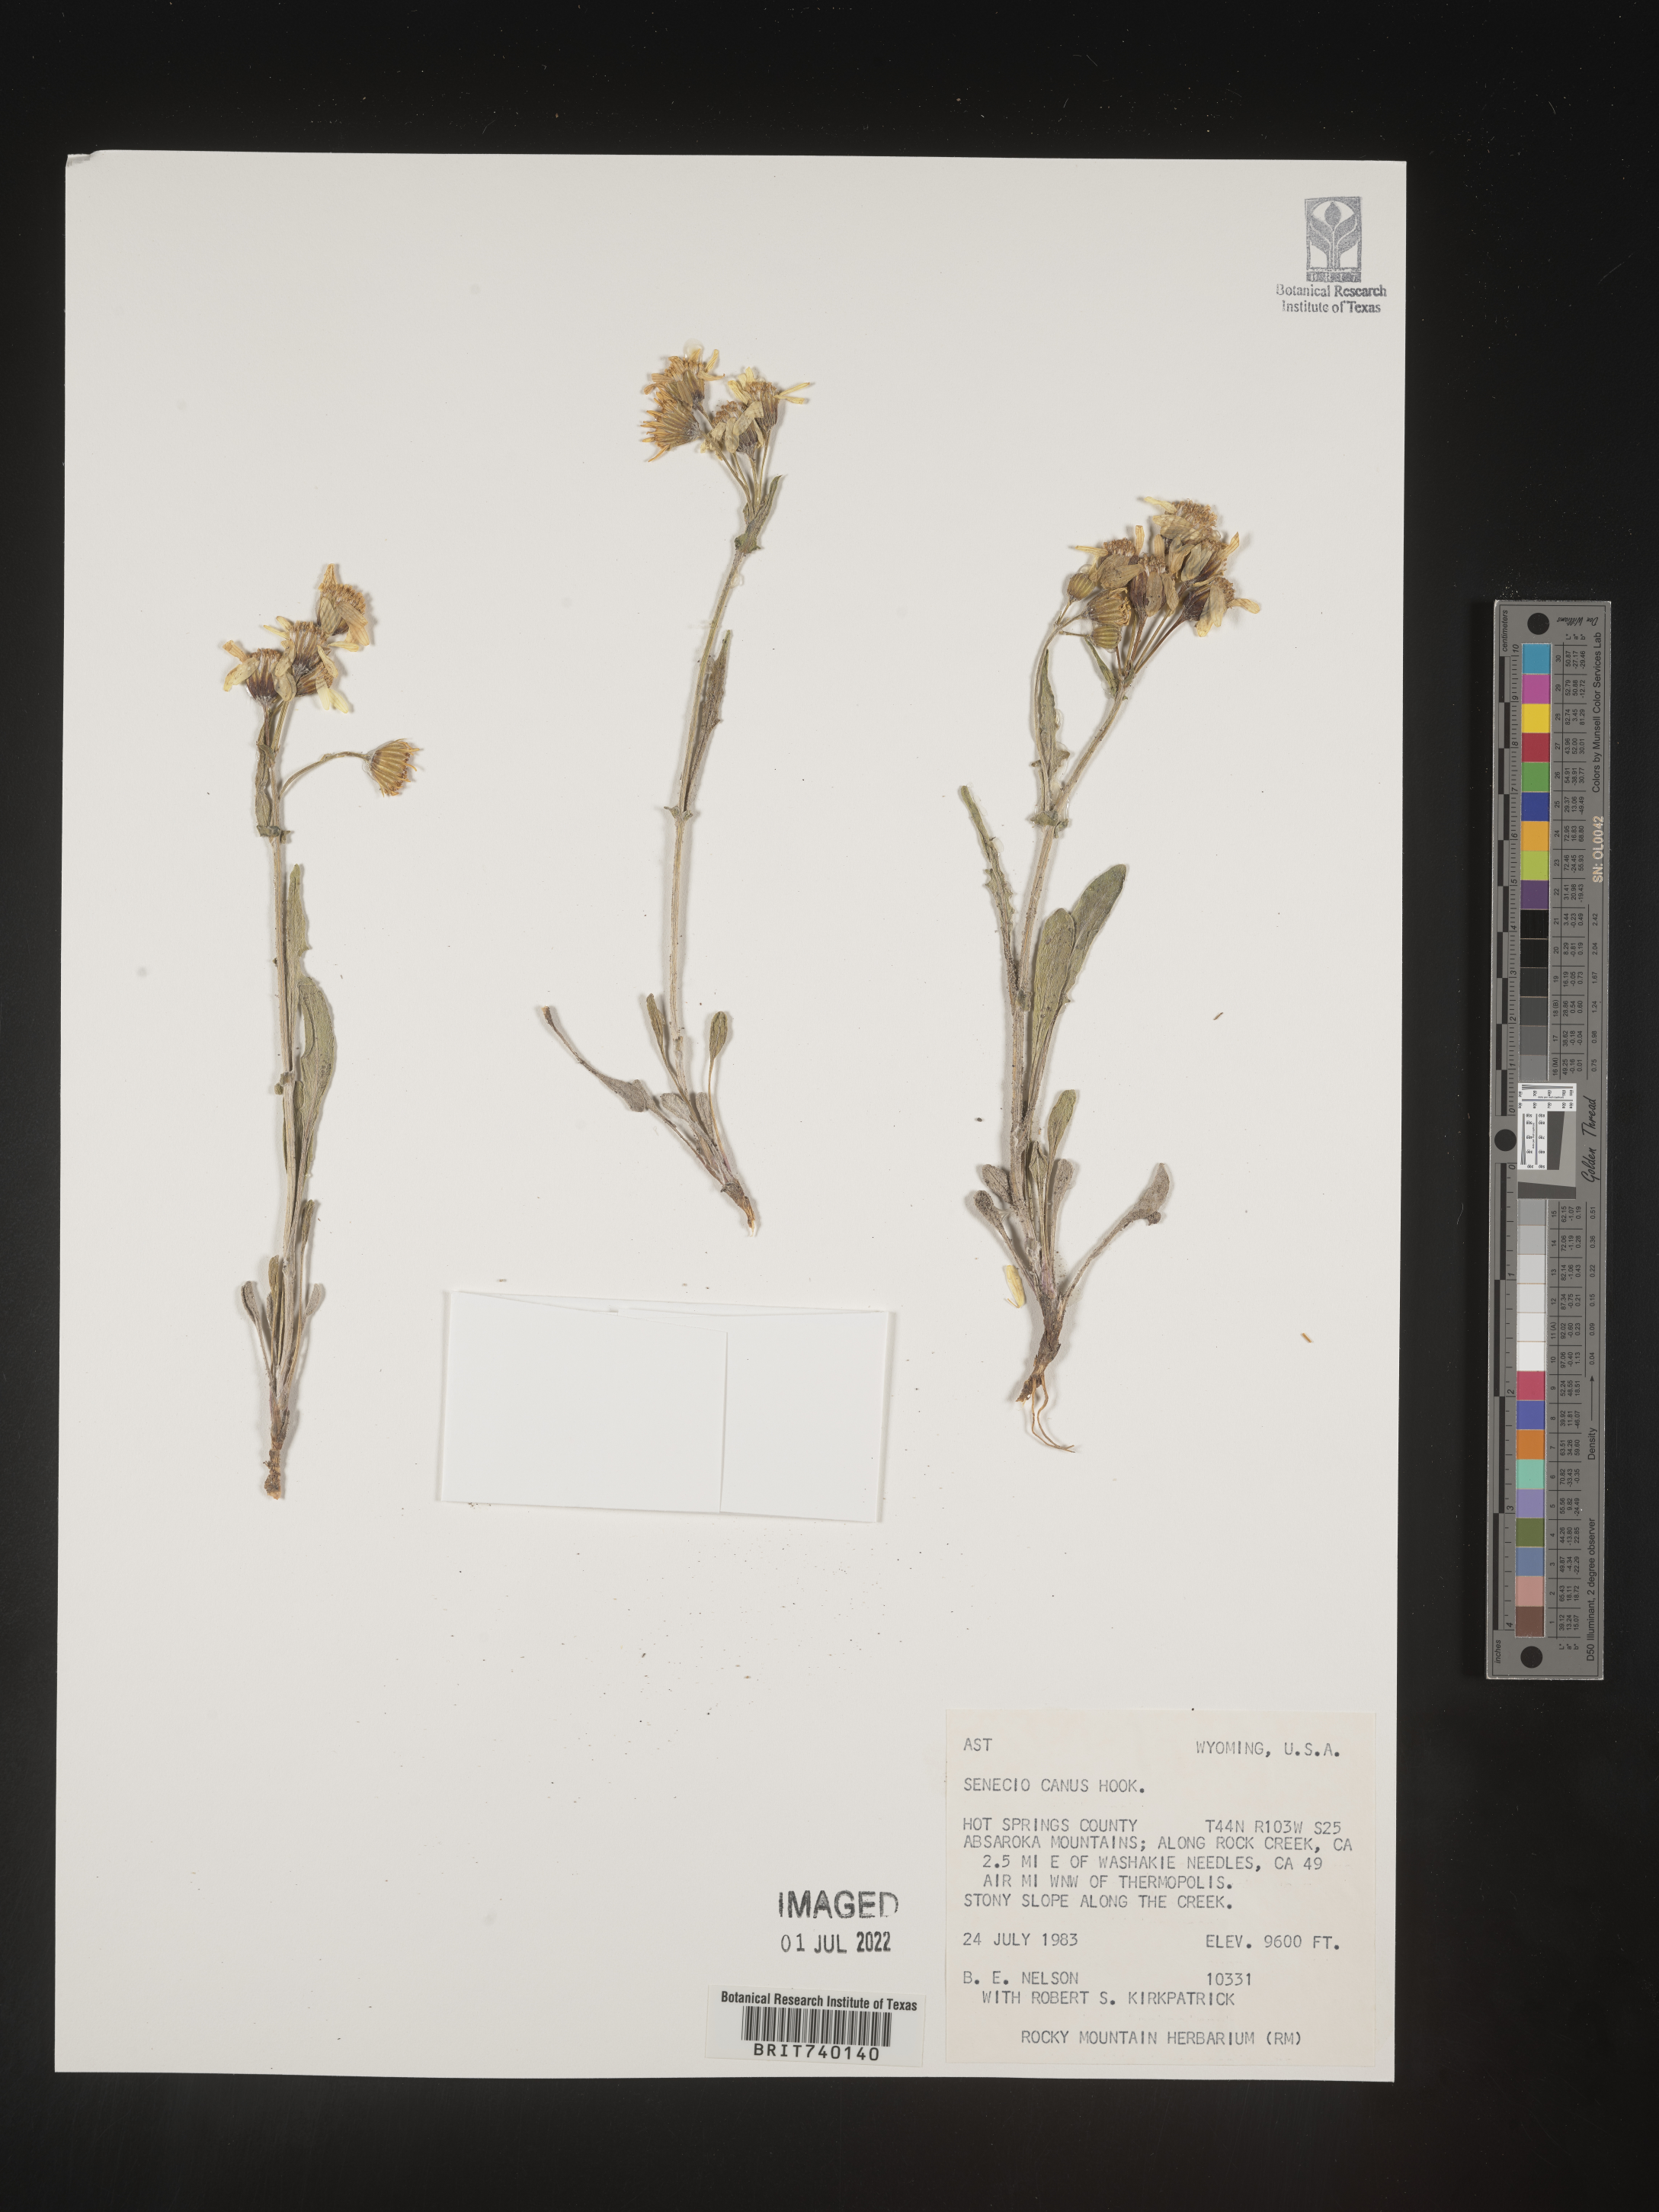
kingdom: Plantae
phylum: Tracheophyta
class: Magnoliopsida
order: Asterales
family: Asteraceae
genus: Packera
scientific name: Packera cana
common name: Woolly groundsel
